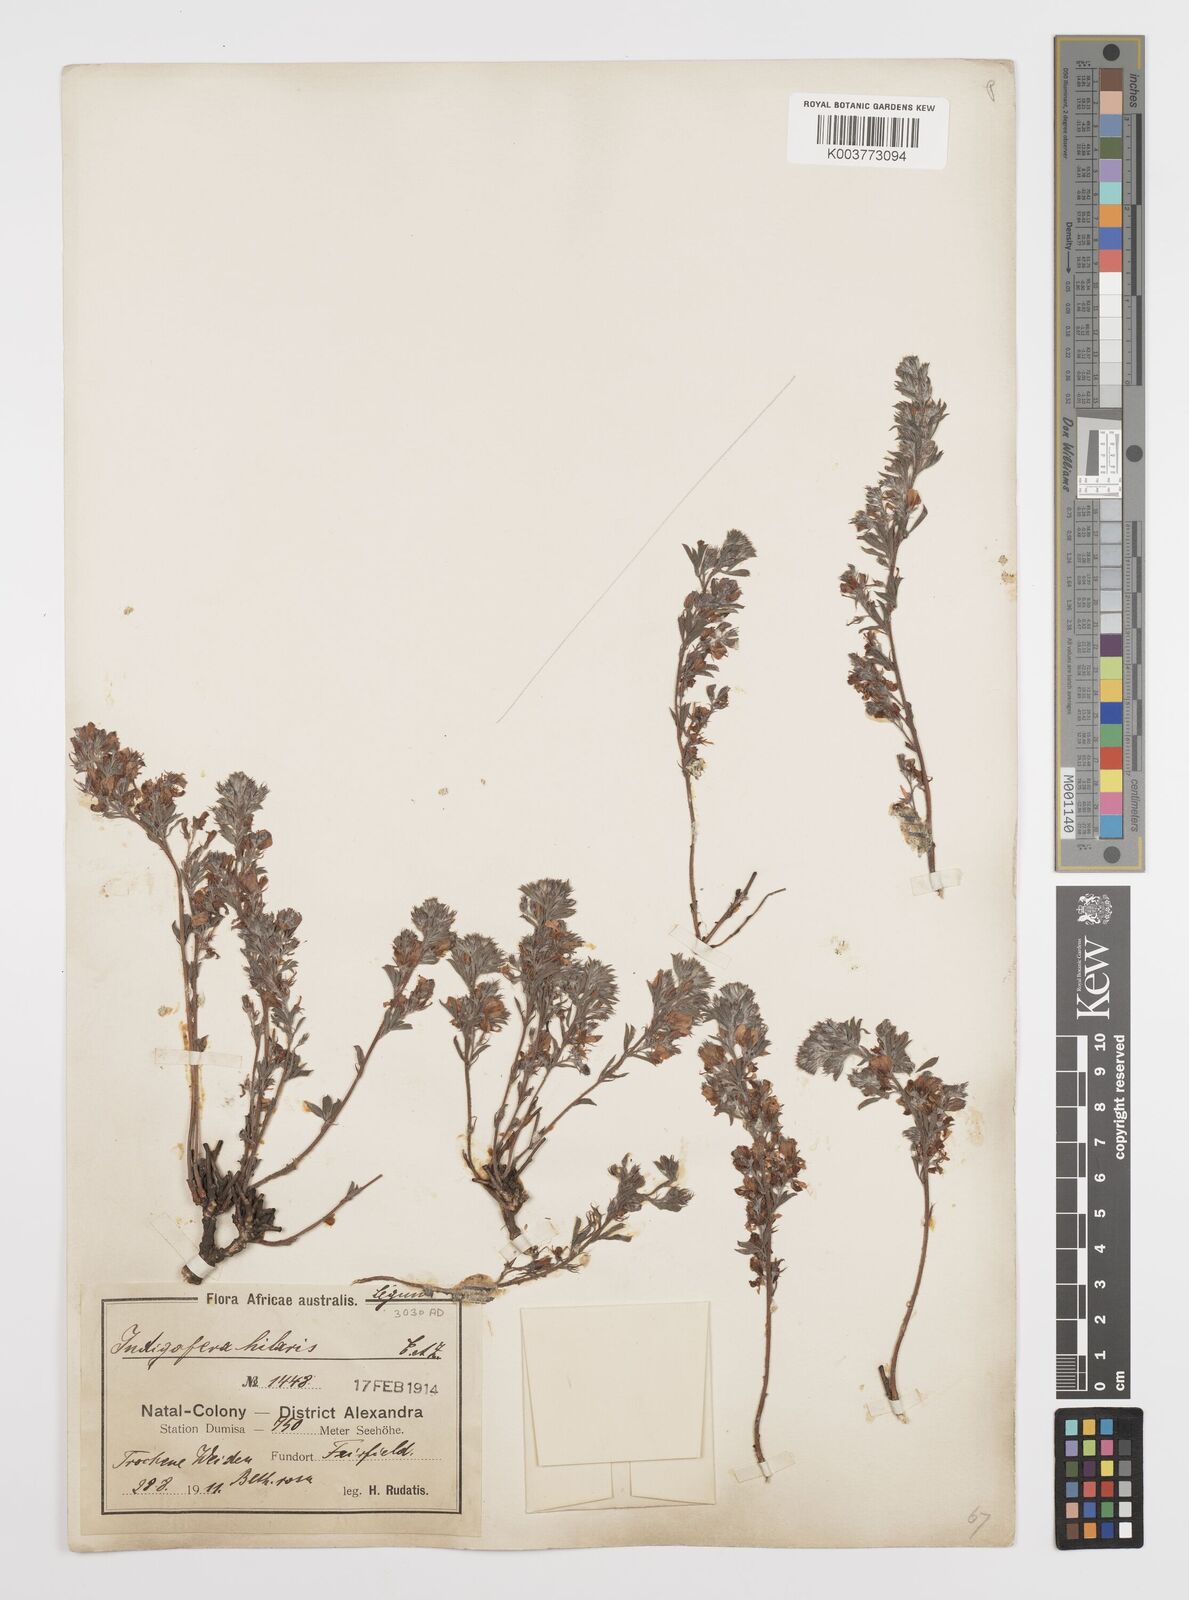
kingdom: Plantae
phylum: Tracheophyta
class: Magnoliopsida
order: Fabales
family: Fabaceae
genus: Indigofera
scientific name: Indigofera
